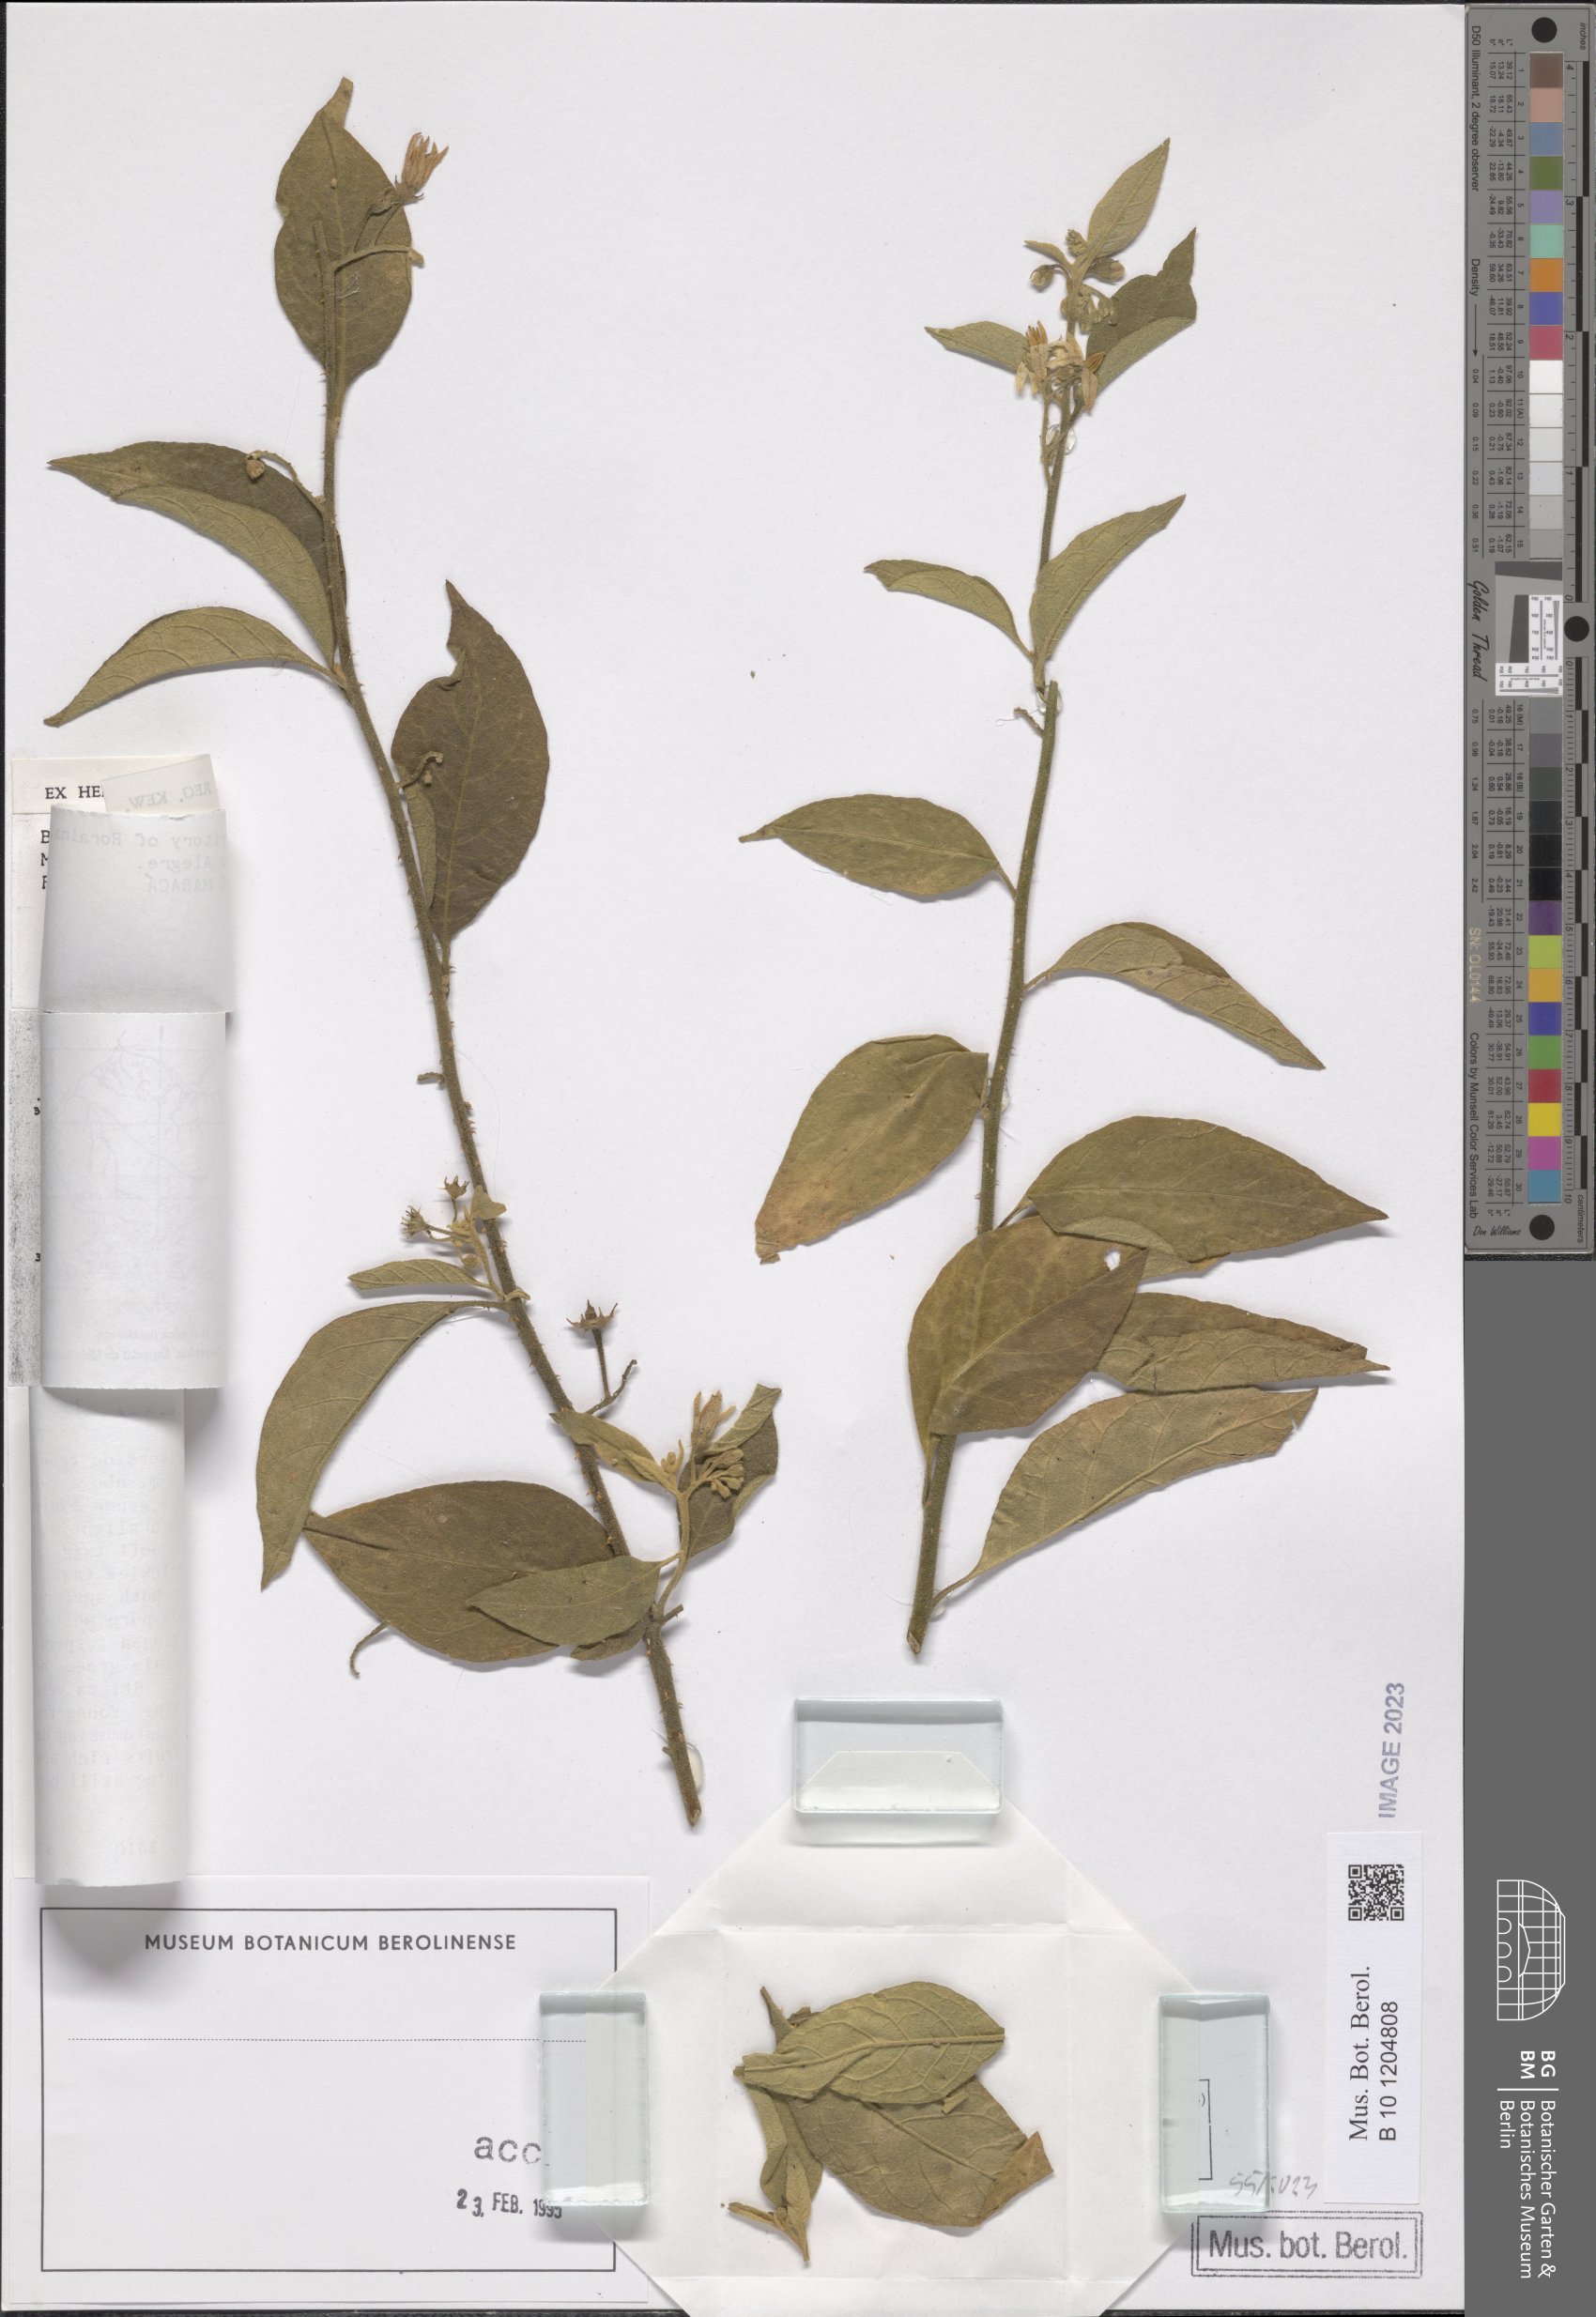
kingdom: Plantae
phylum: Tracheophyta
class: Magnoliopsida
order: Solanales
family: Solanaceae
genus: Solanum
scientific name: Solanum subinerme
